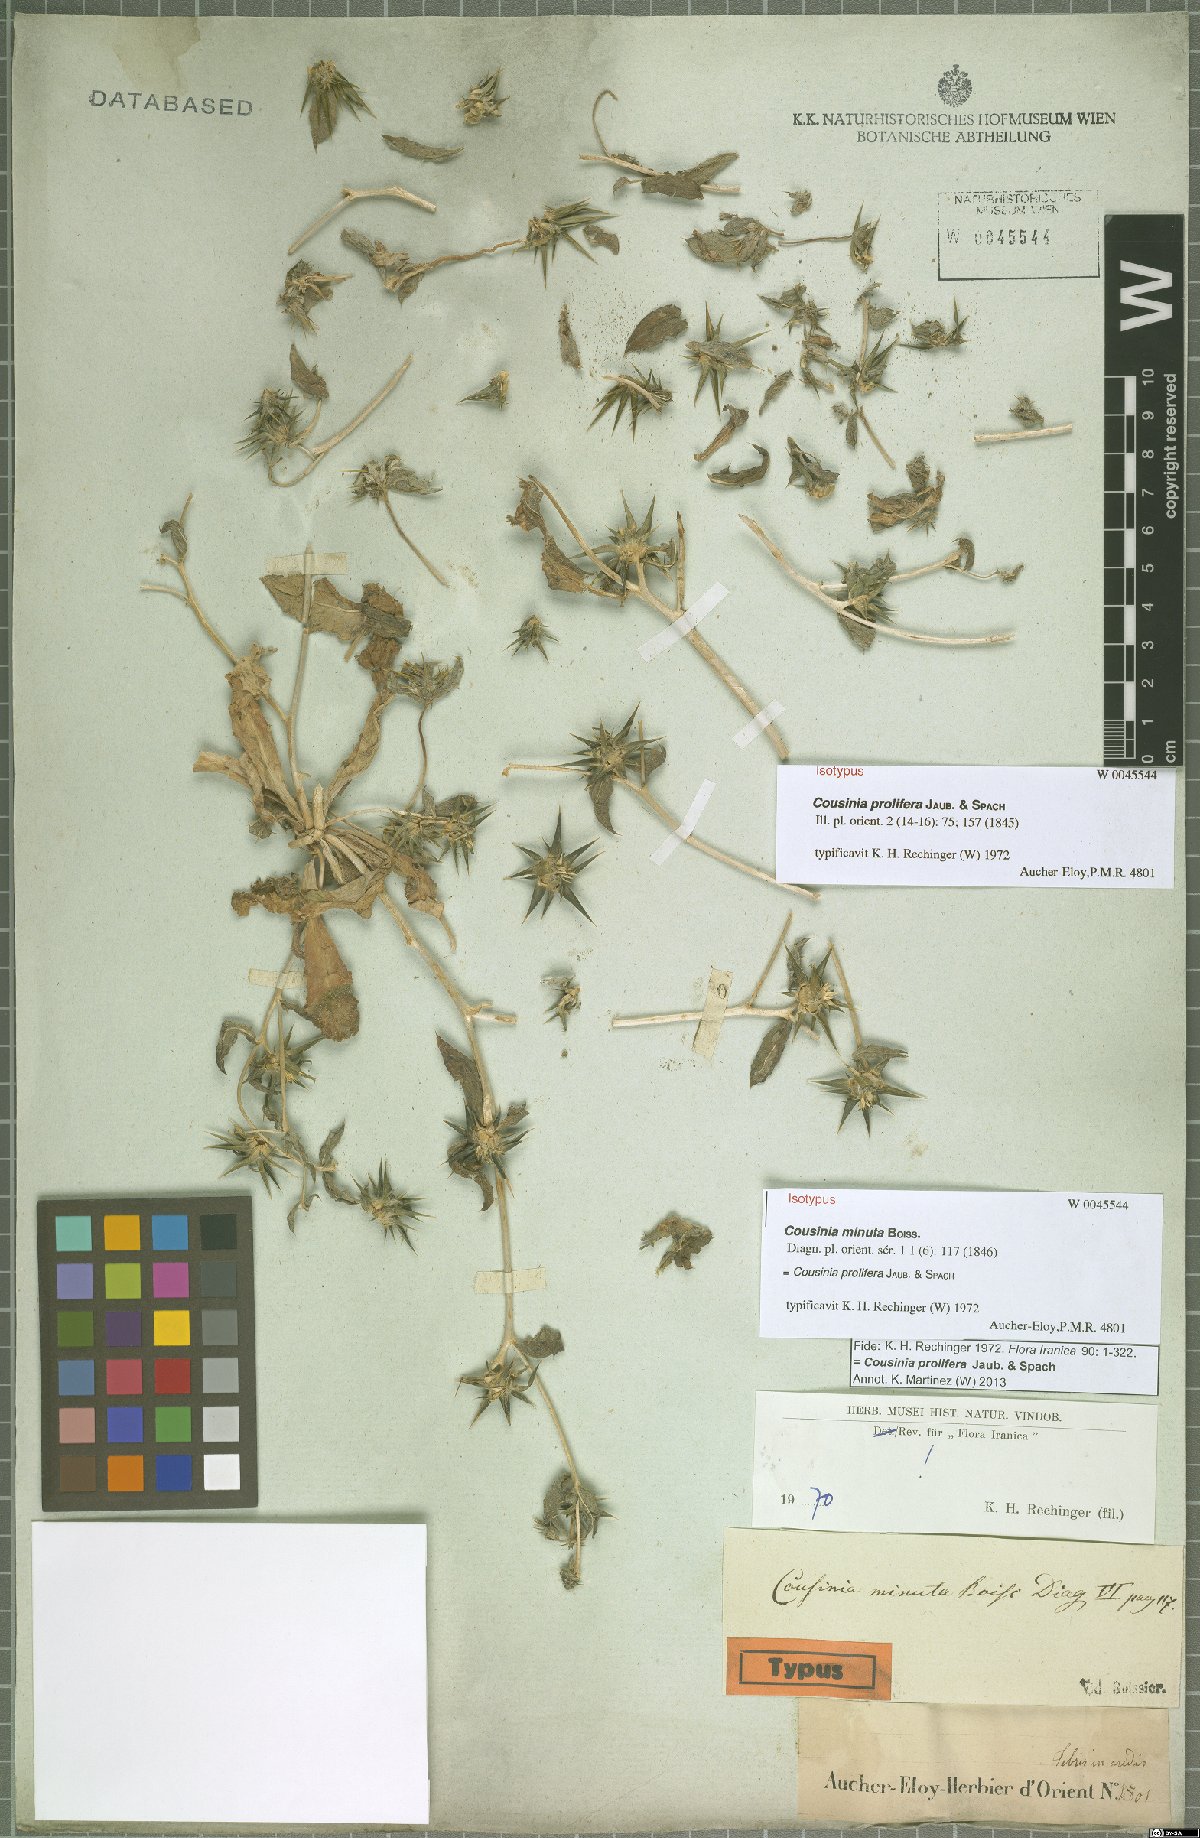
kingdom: Plantae
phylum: Tracheophyta
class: Magnoliopsida
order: Asterales
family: Asteraceae
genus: Cousinia
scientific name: Cousinia prolifera
